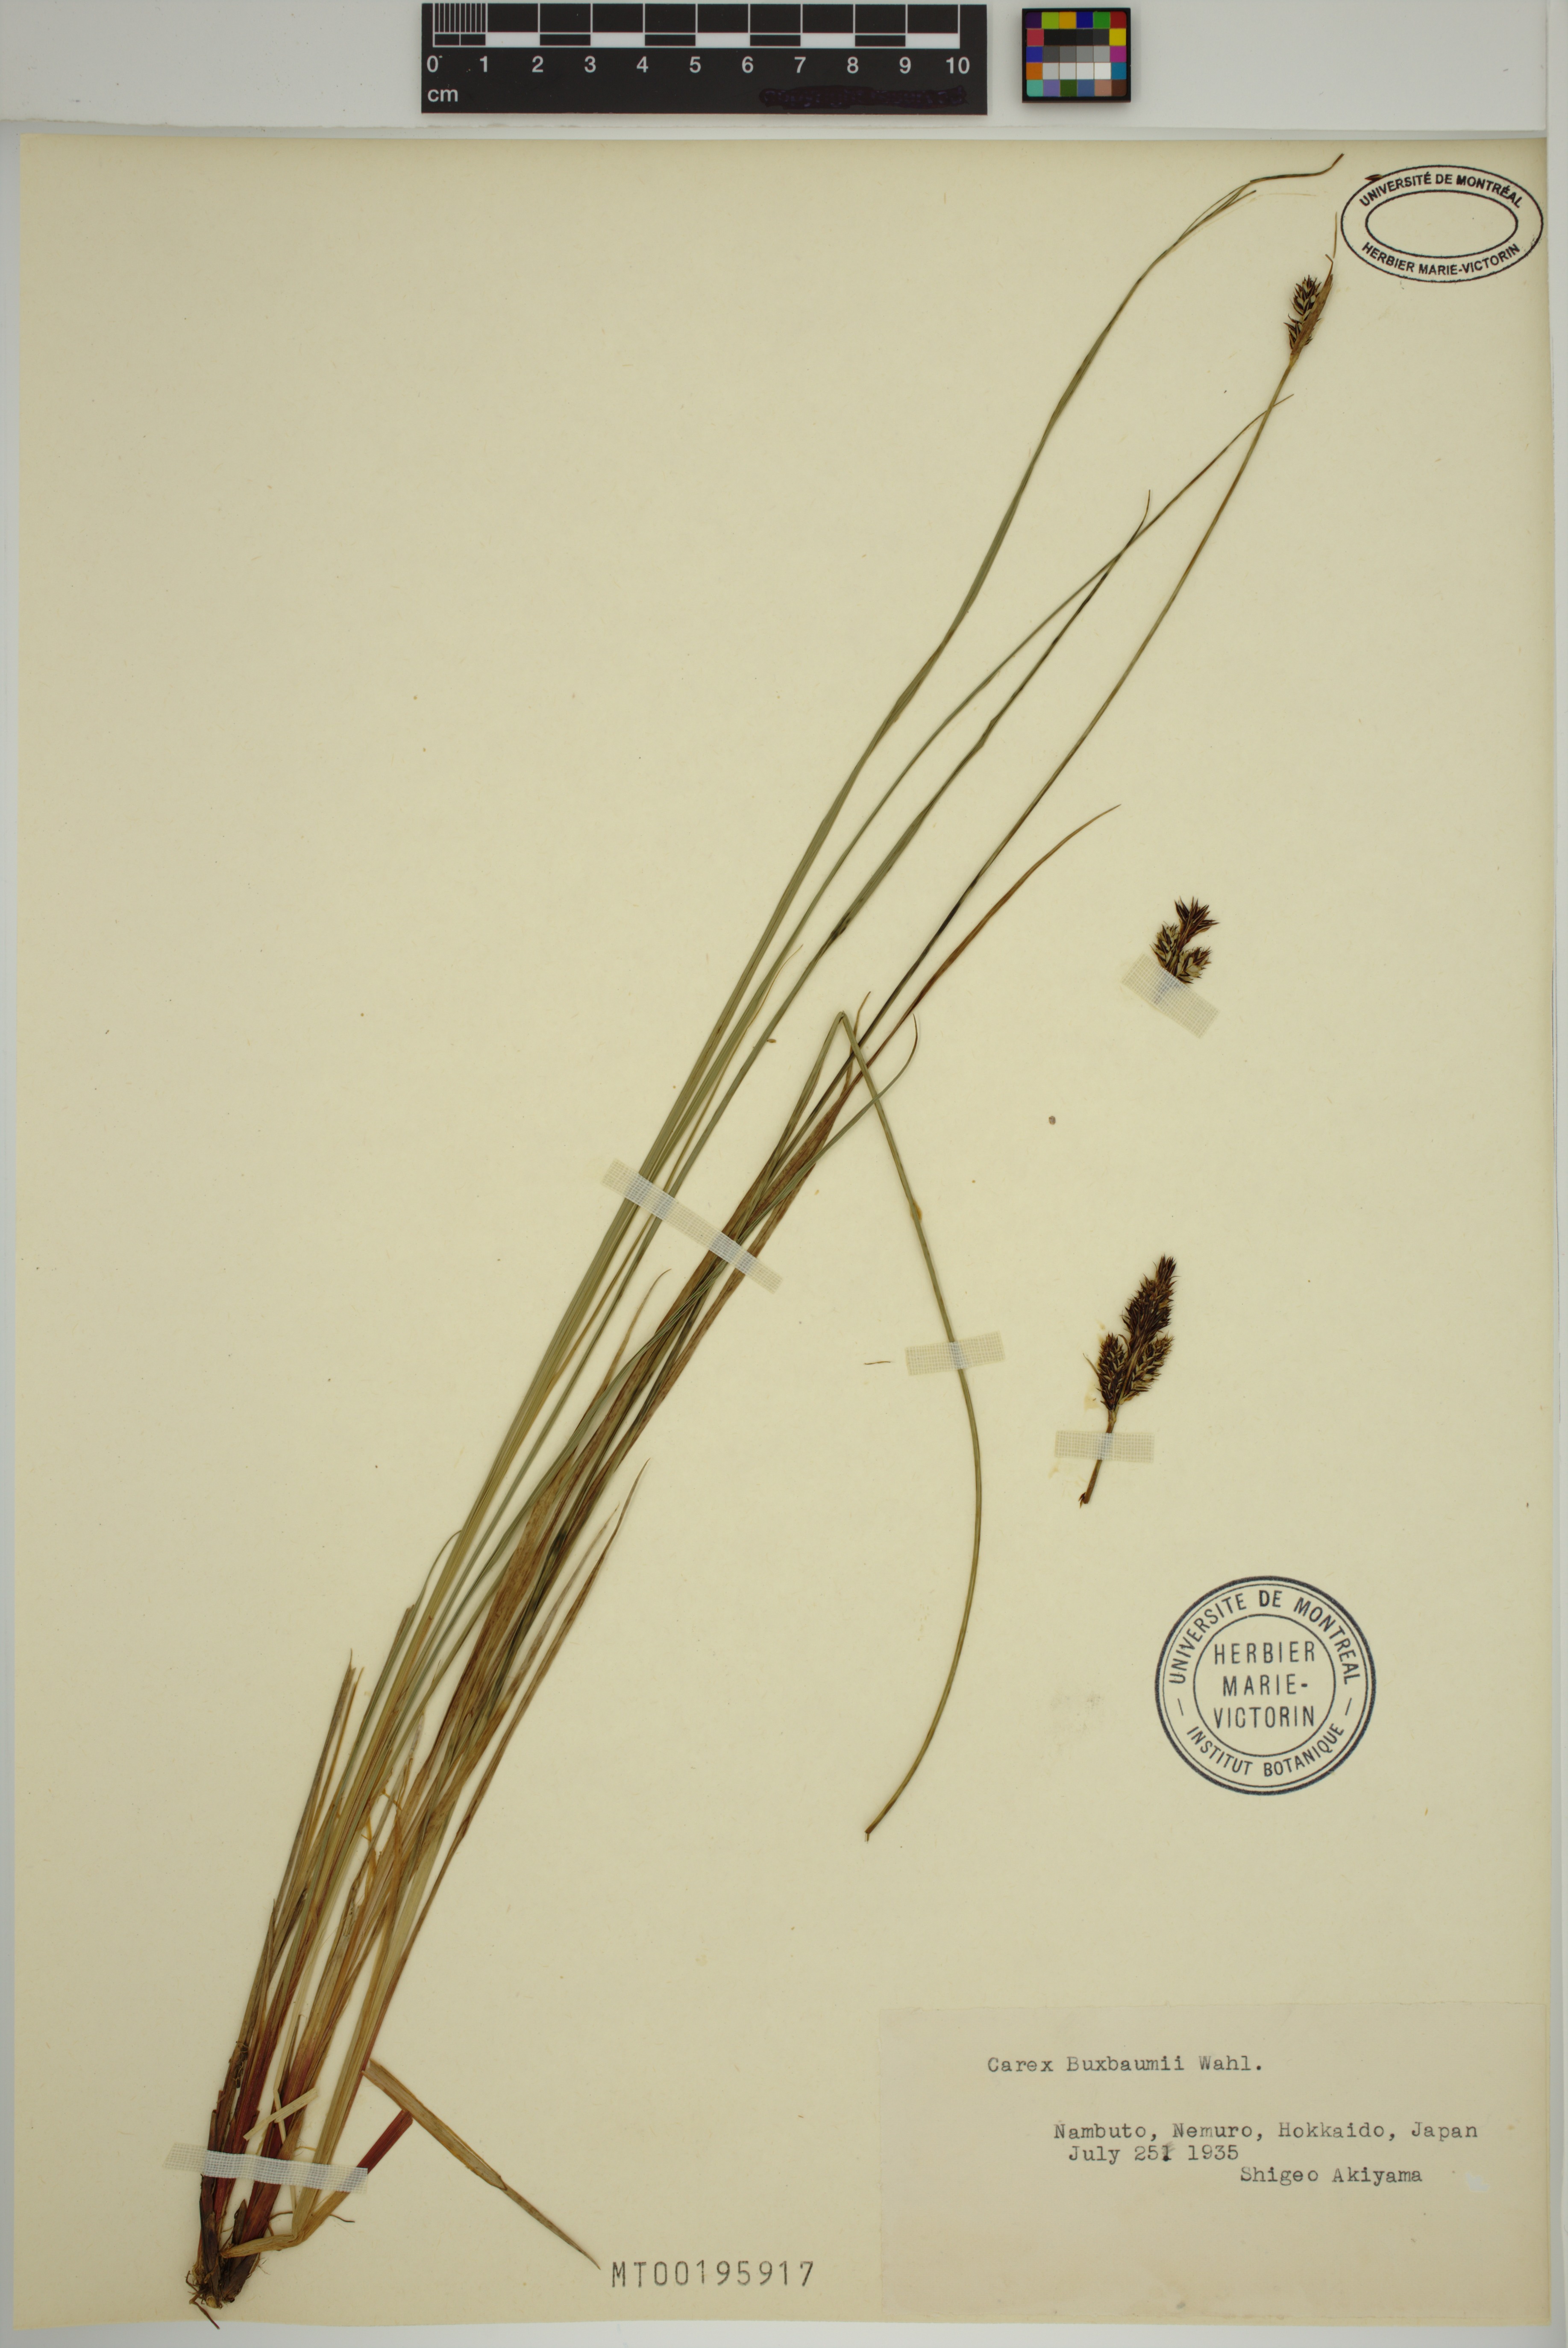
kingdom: Plantae
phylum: Tracheophyta
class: Liliopsida
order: Poales
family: Cyperaceae
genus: Carex
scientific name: Carex buxbaumii
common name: Club sedge
